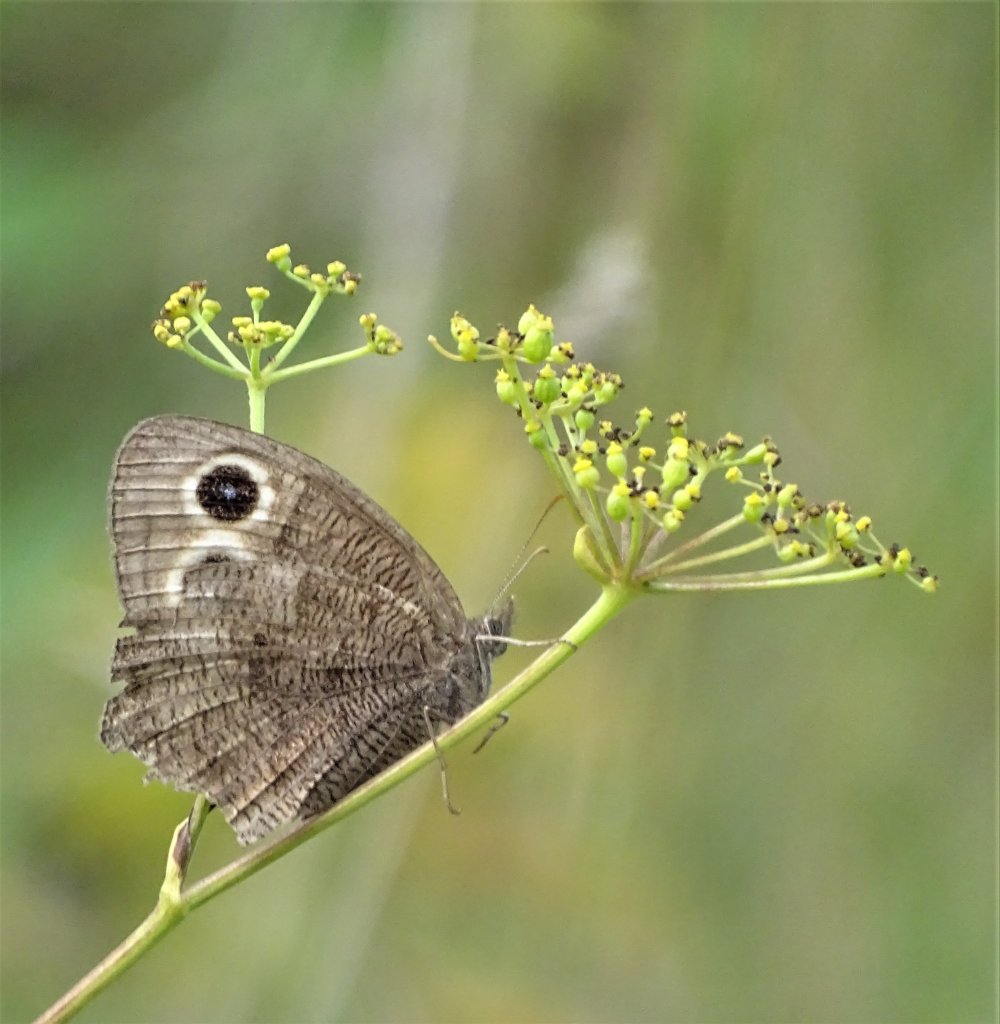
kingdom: Animalia
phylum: Arthropoda
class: Insecta
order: Lepidoptera
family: Nymphalidae
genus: Cercyonis
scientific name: Cercyonis pegala
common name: Common Wood-Nymph
